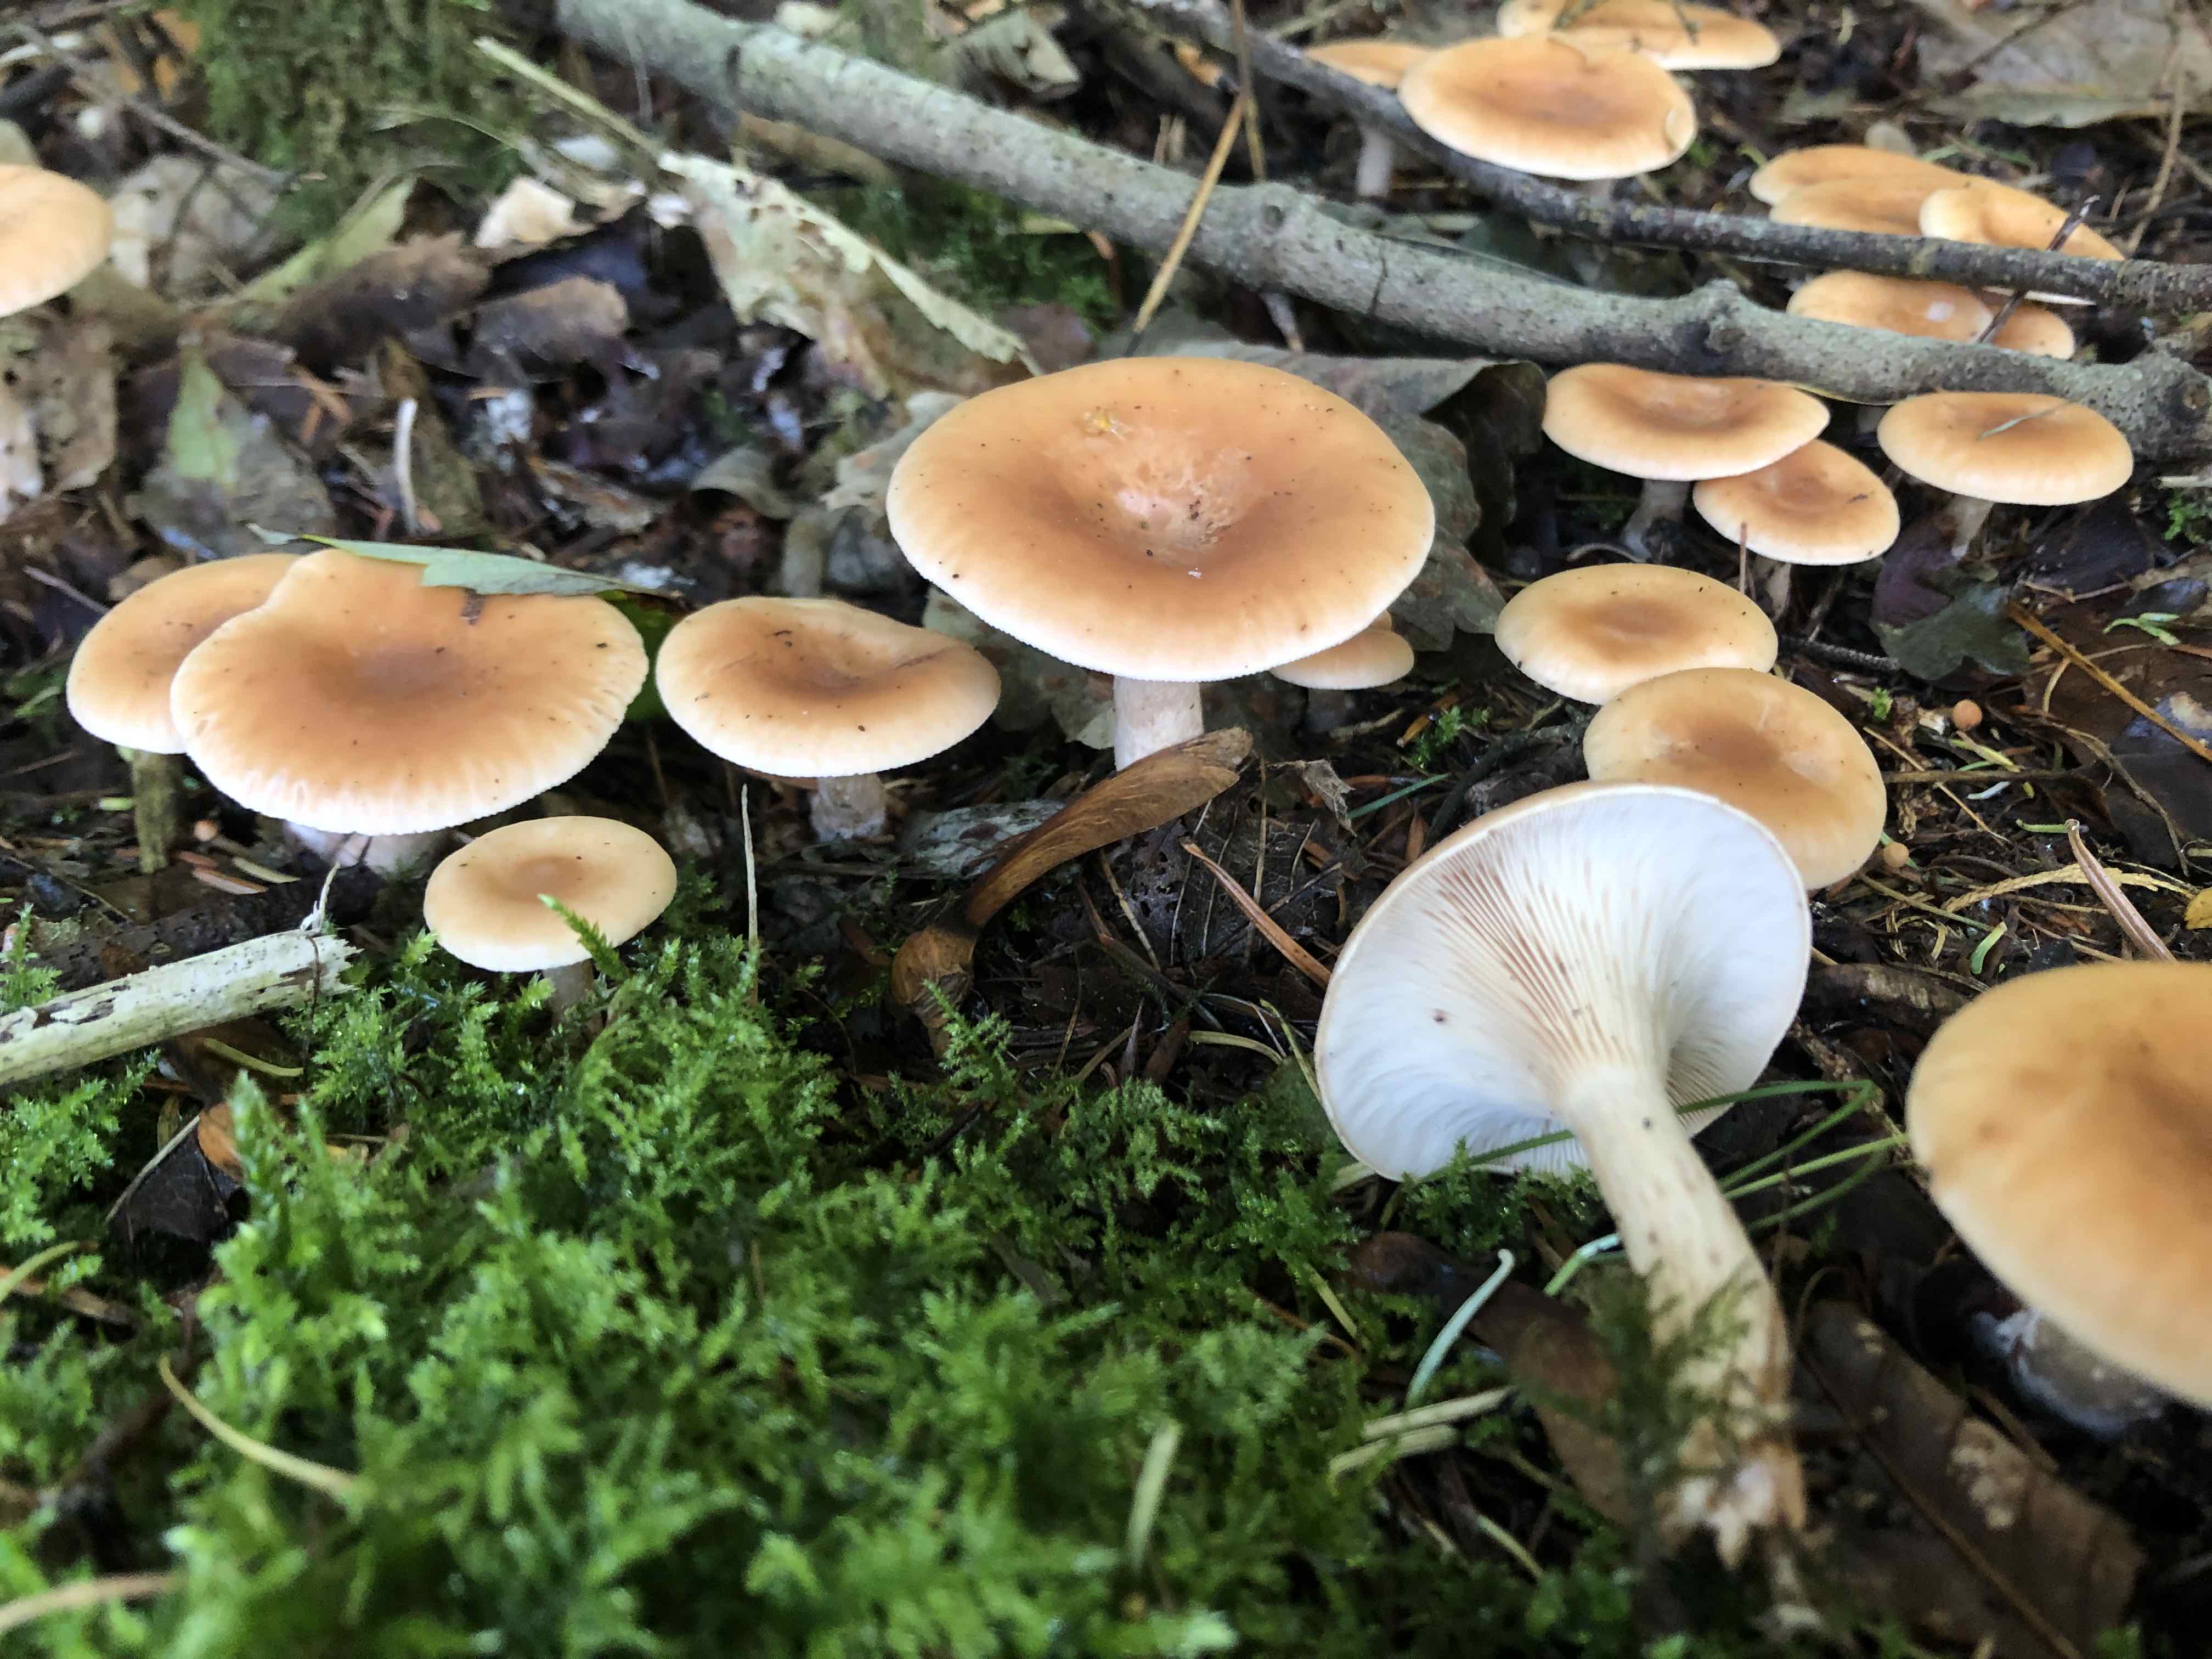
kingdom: Fungi
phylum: Basidiomycota
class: Agaricomycetes
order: Agaricales
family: Tricholomataceae
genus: Paralepista
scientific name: Paralepista flaccida
